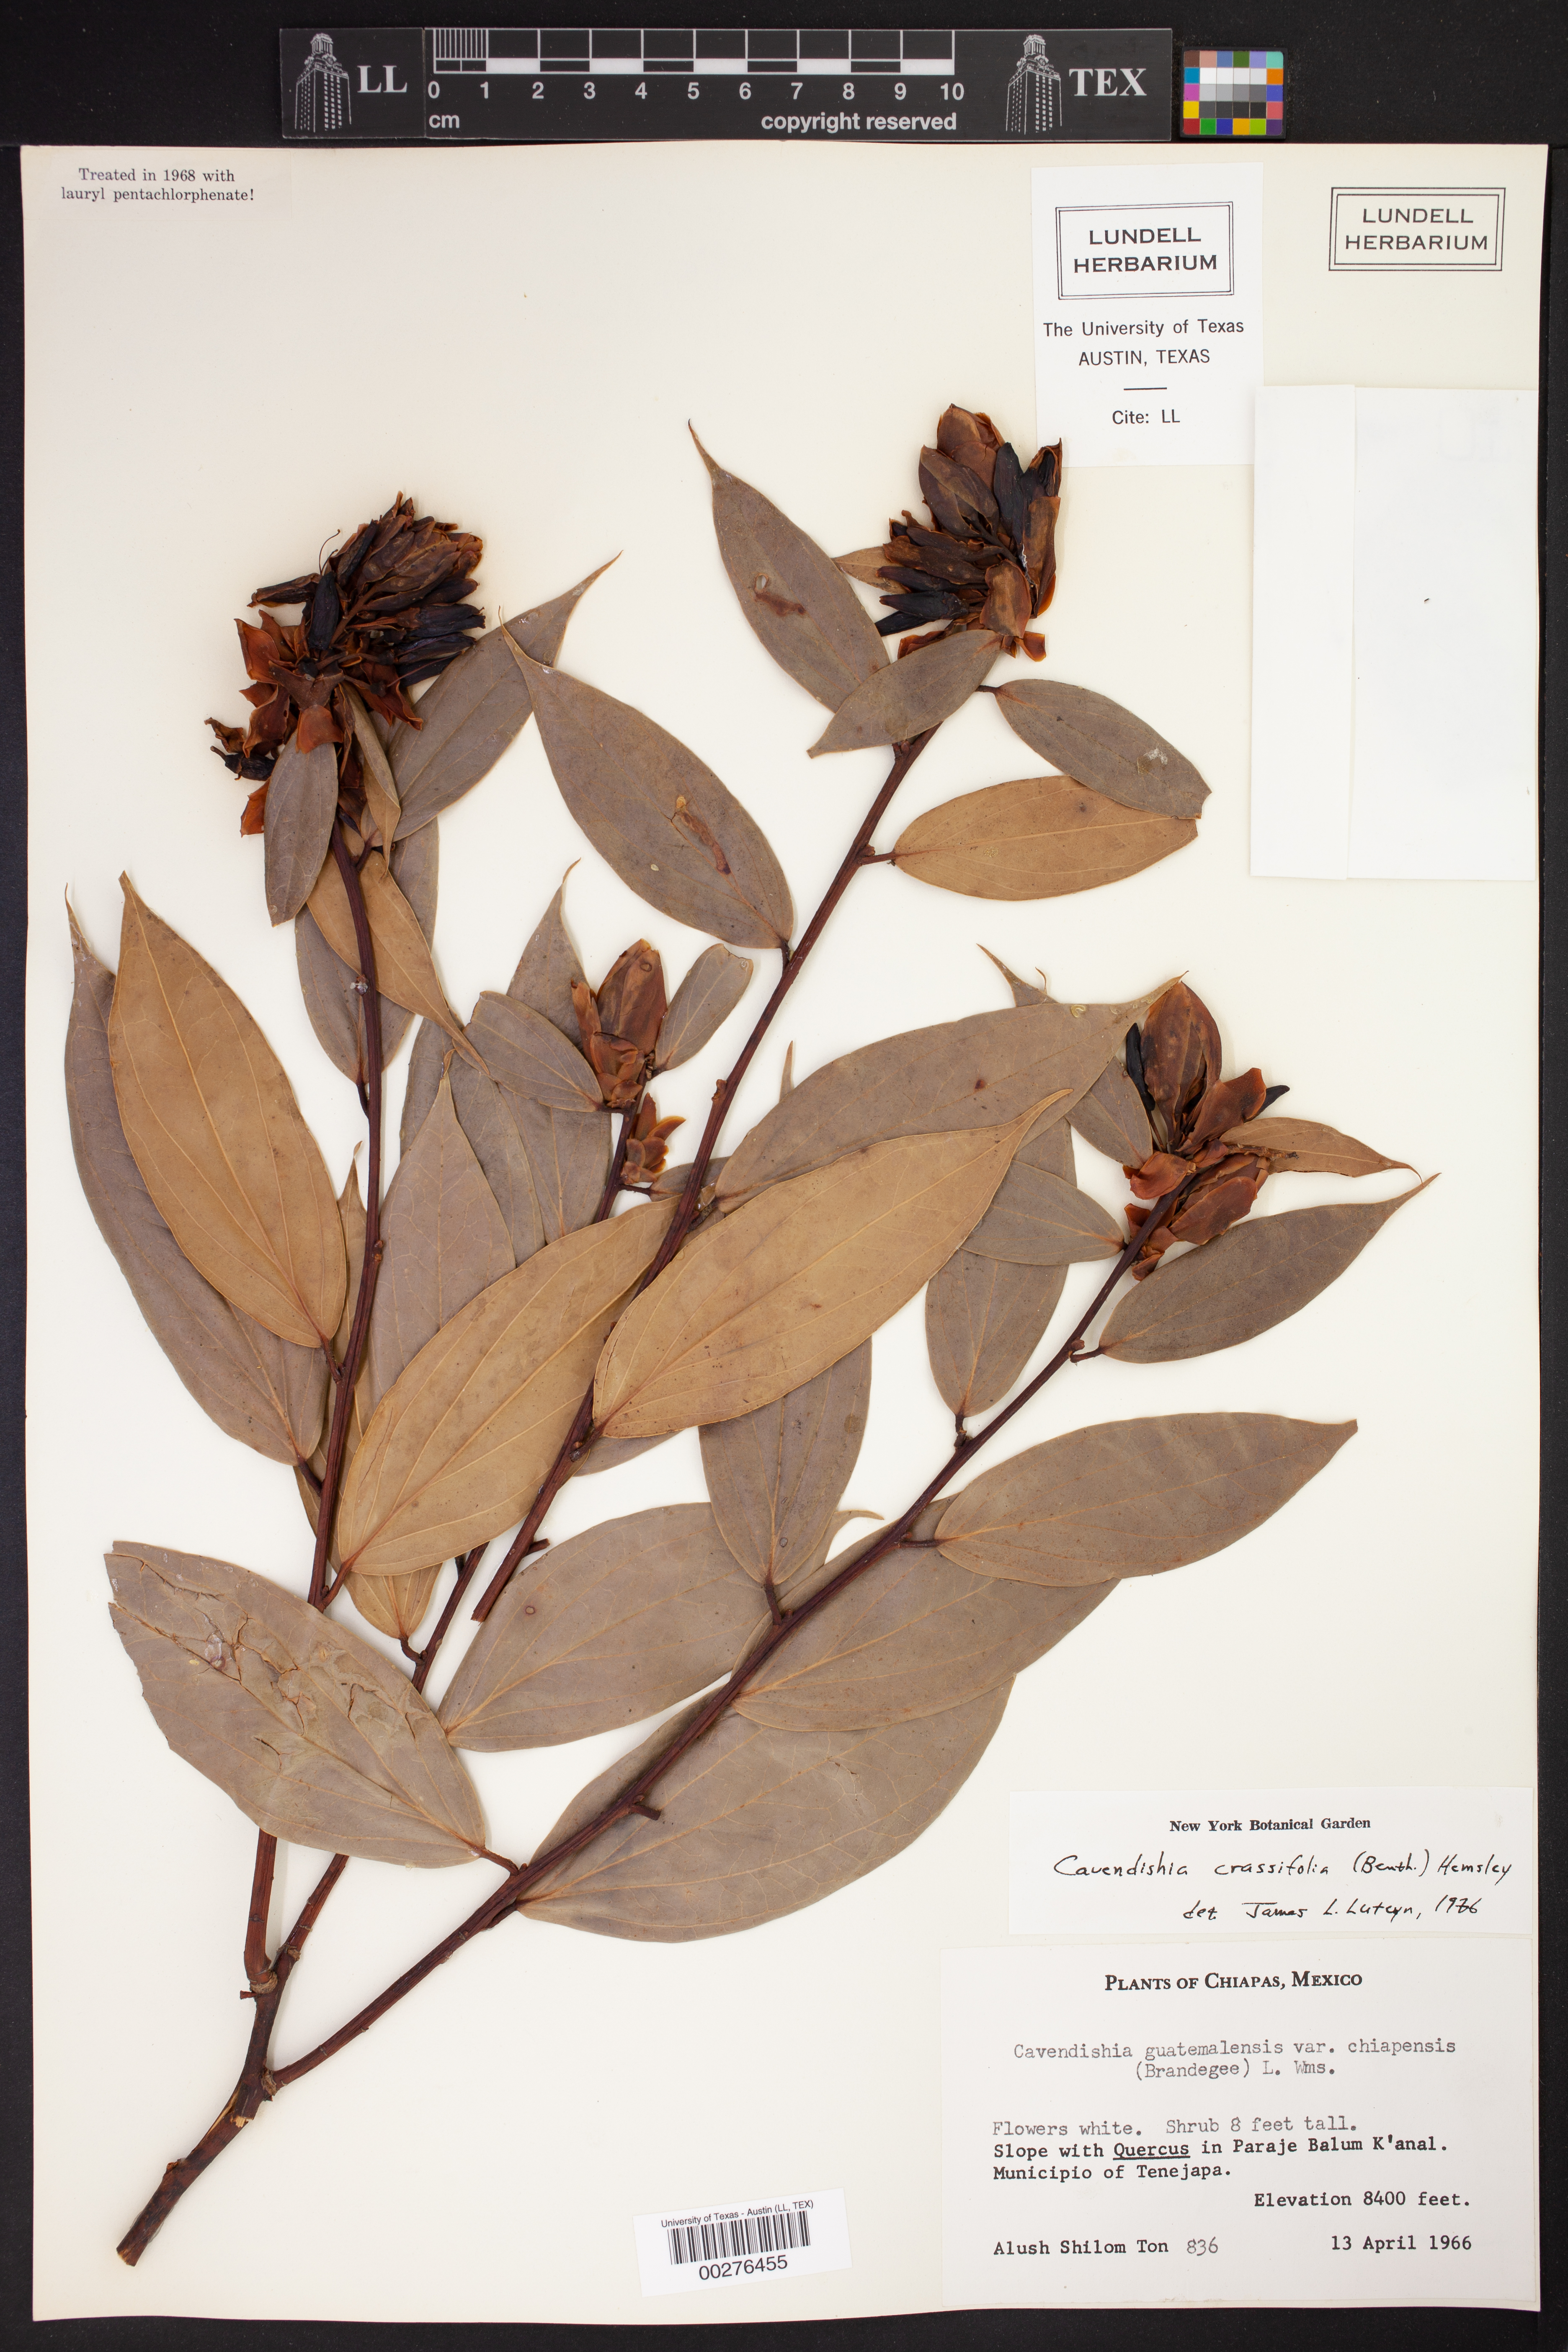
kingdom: Plantae
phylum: Tracheophyta
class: Magnoliopsida
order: Ericales
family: Ericaceae
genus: Cavendishia
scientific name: Cavendishia bracteata
